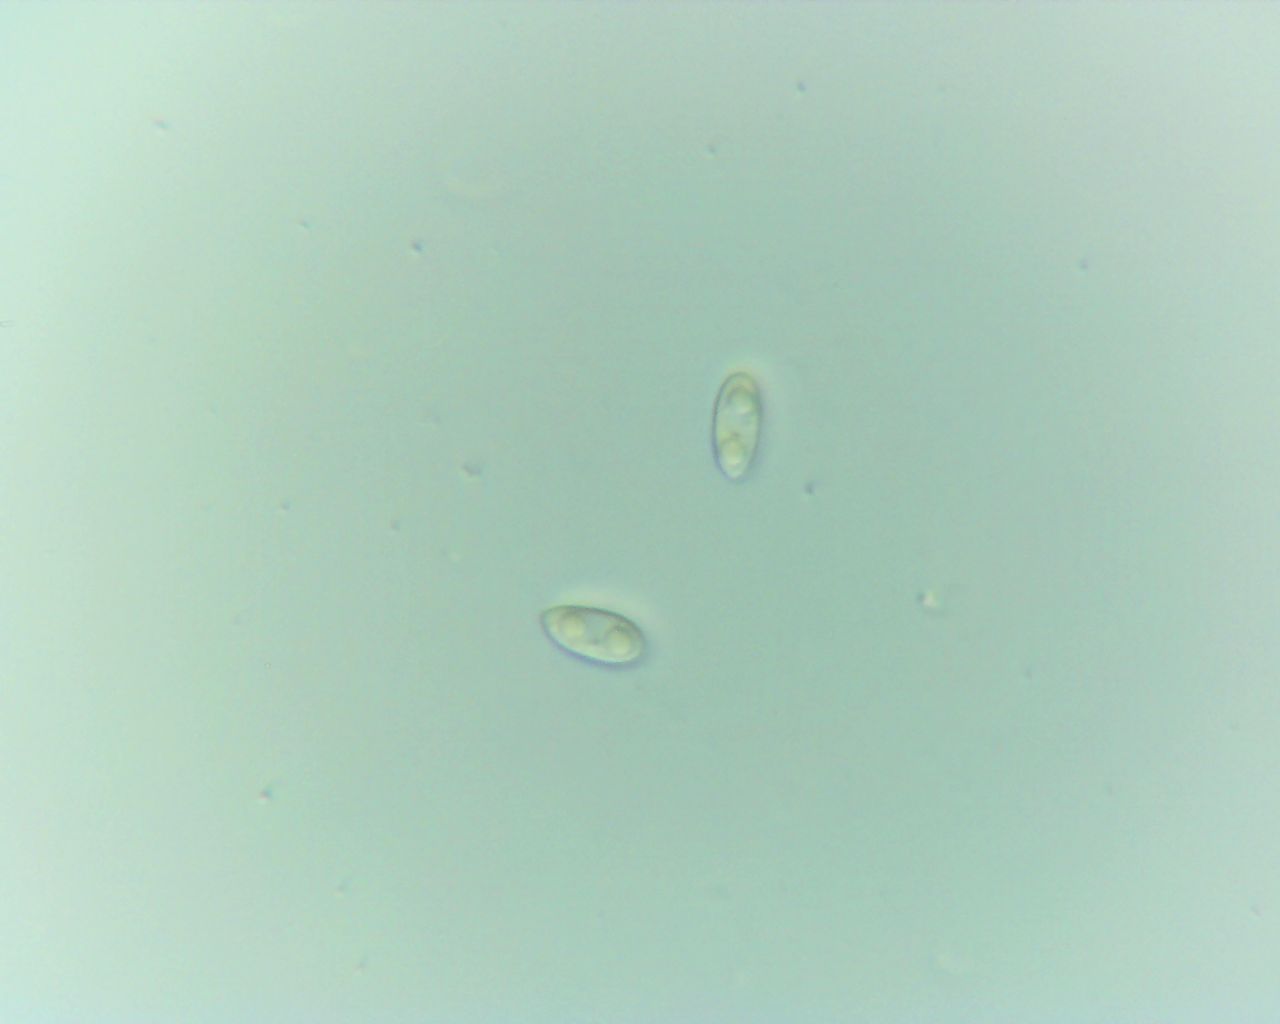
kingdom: Fungi
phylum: Ascomycota
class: Sordariomycetes
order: Diaporthales
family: Diaporthaceae
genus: Diaporthe
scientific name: Diaporthe samaricola
